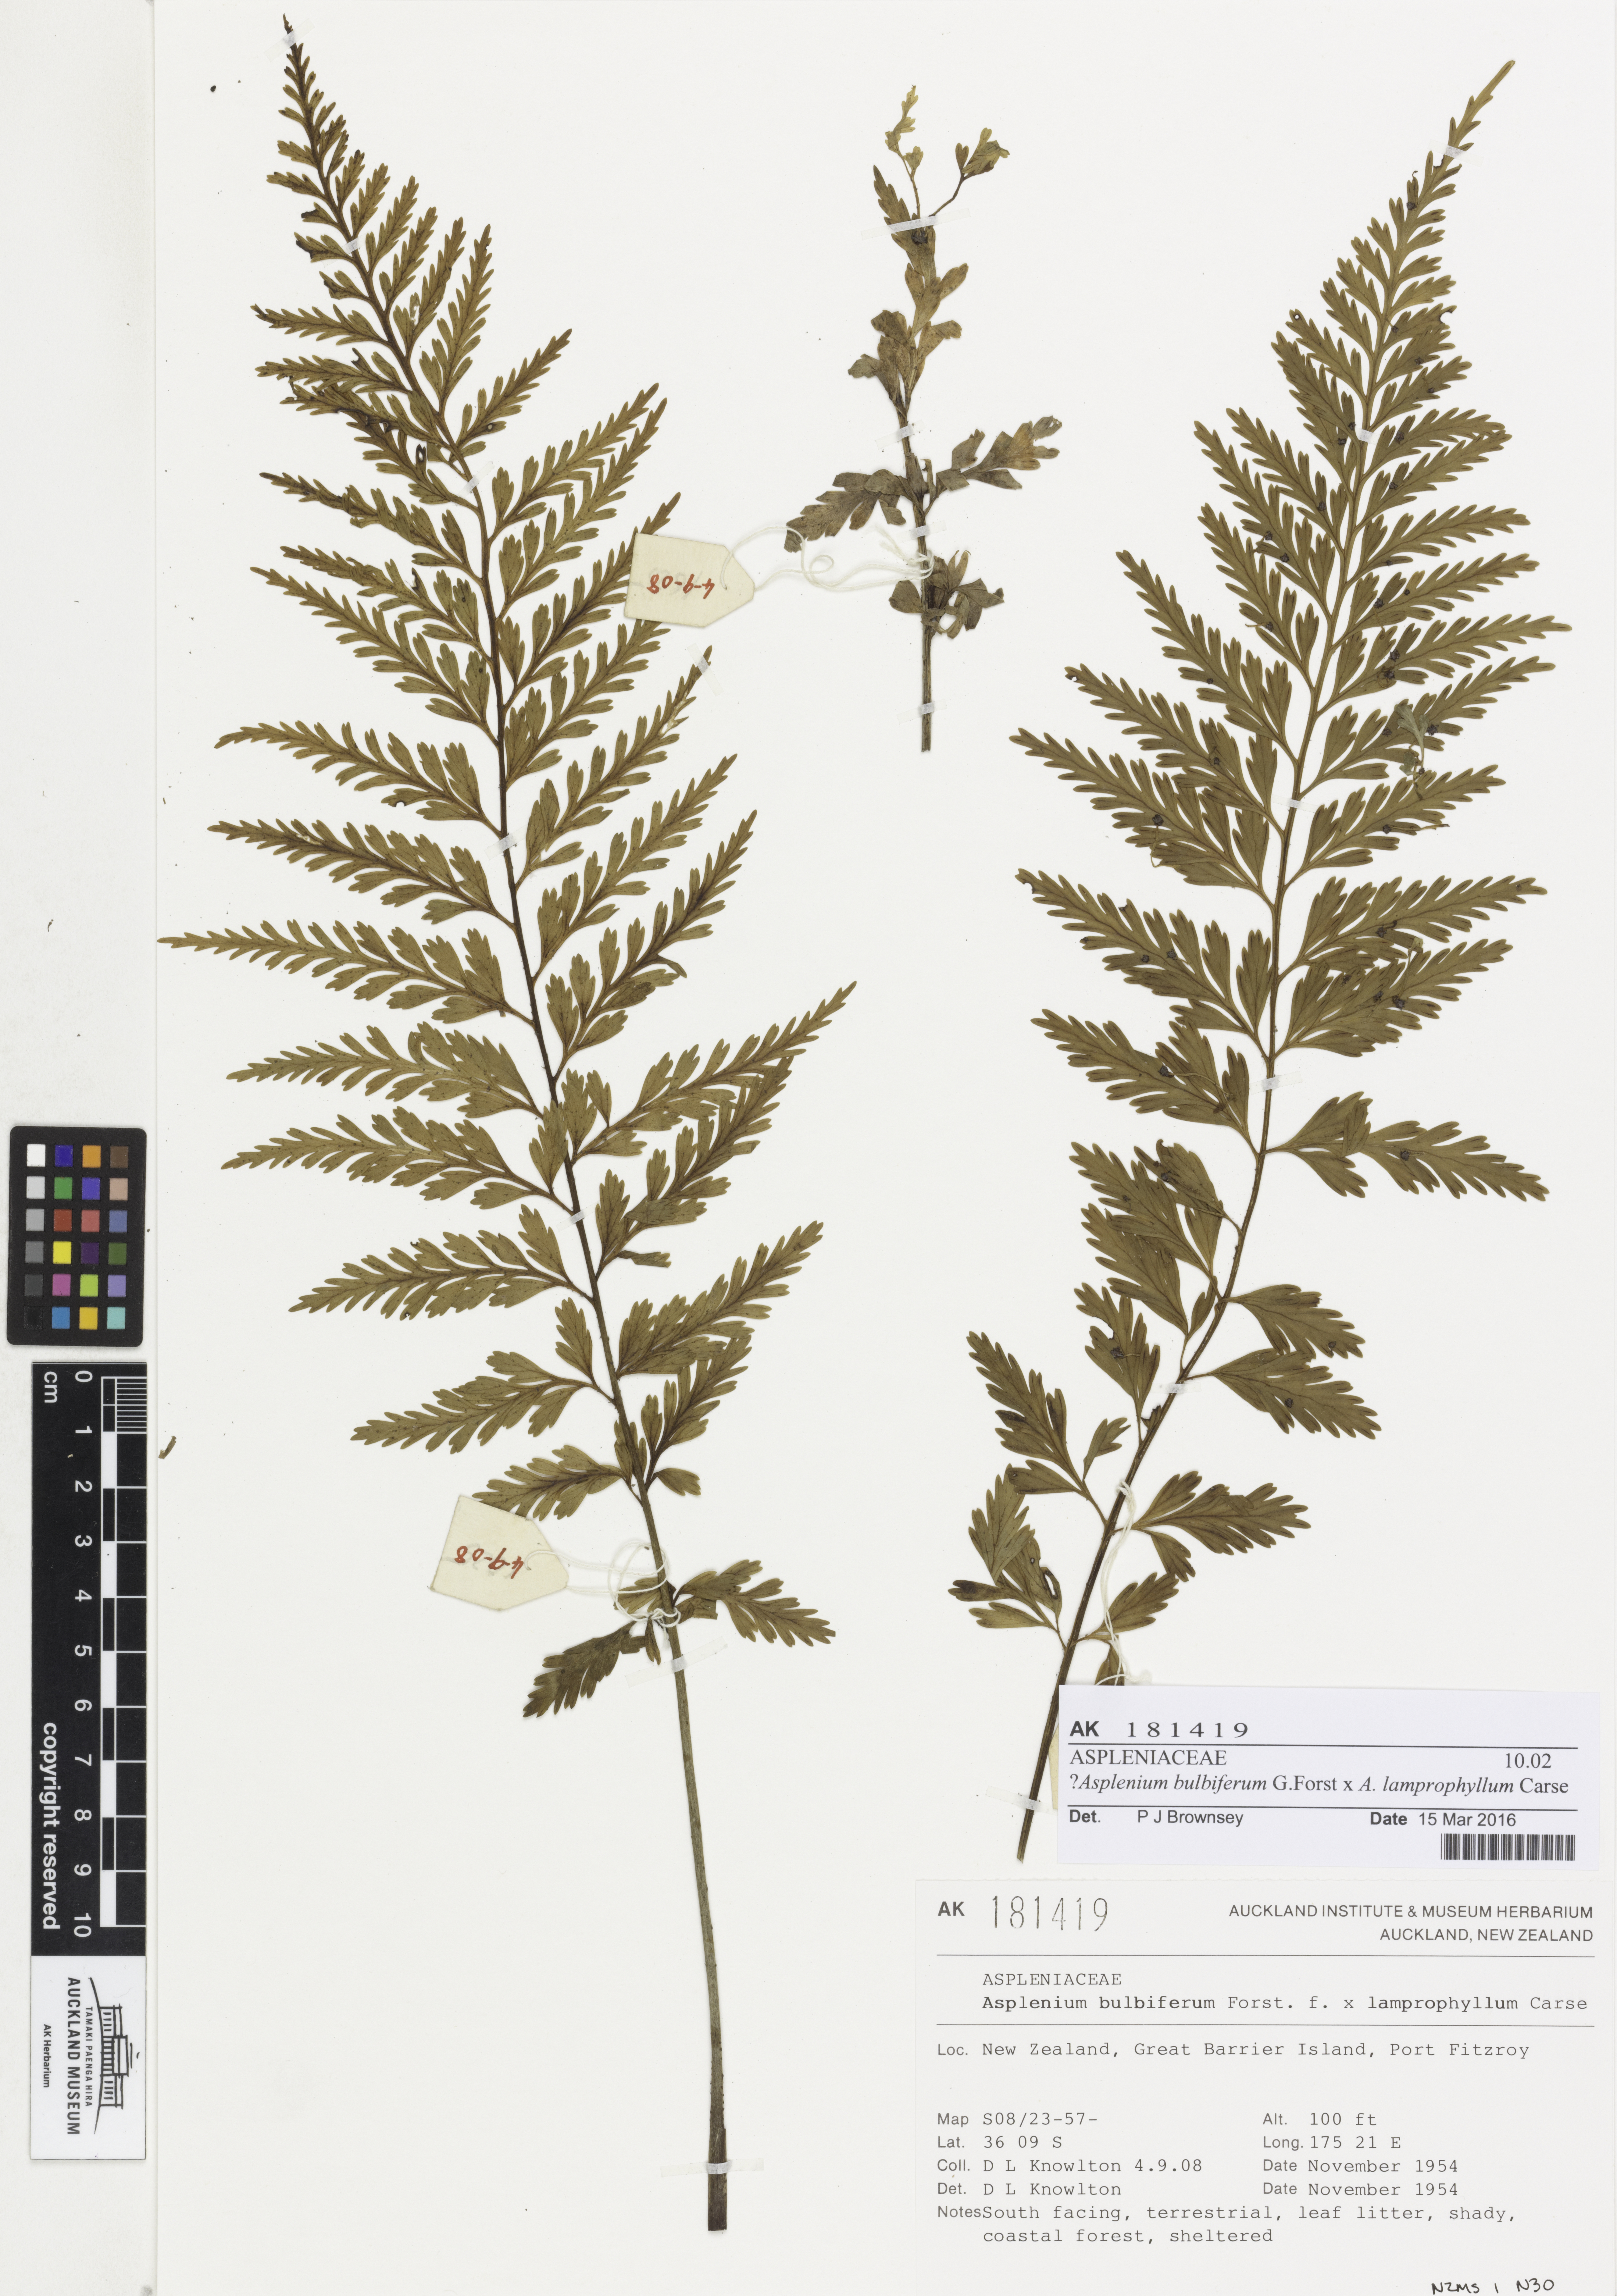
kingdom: Plantae
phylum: Tracheophyta
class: Polypodiopsida
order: Polypodiales
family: Aspleniaceae
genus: Asplenium
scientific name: Asplenium
